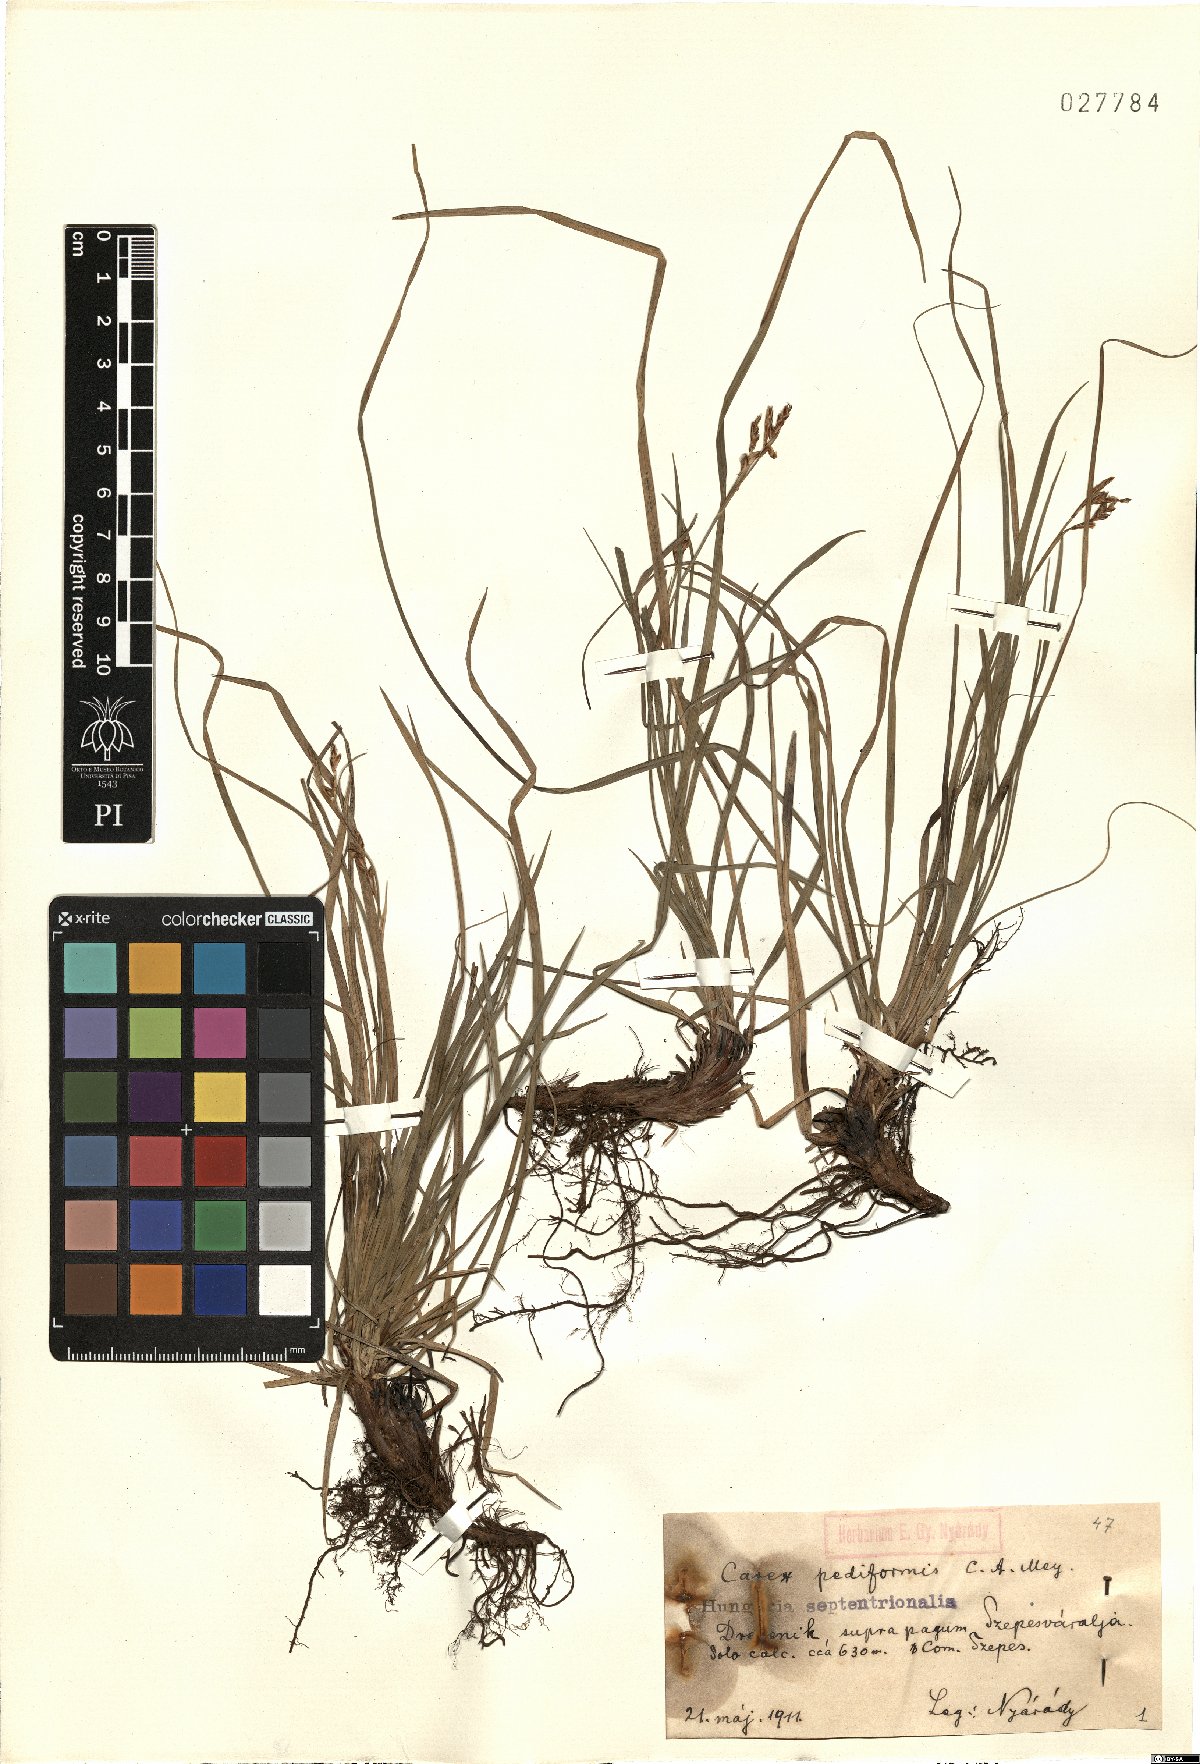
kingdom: Plantae
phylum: Tracheophyta
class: Liliopsida
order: Poales
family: Cyperaceae
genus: Carex
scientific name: Carex pediformis
